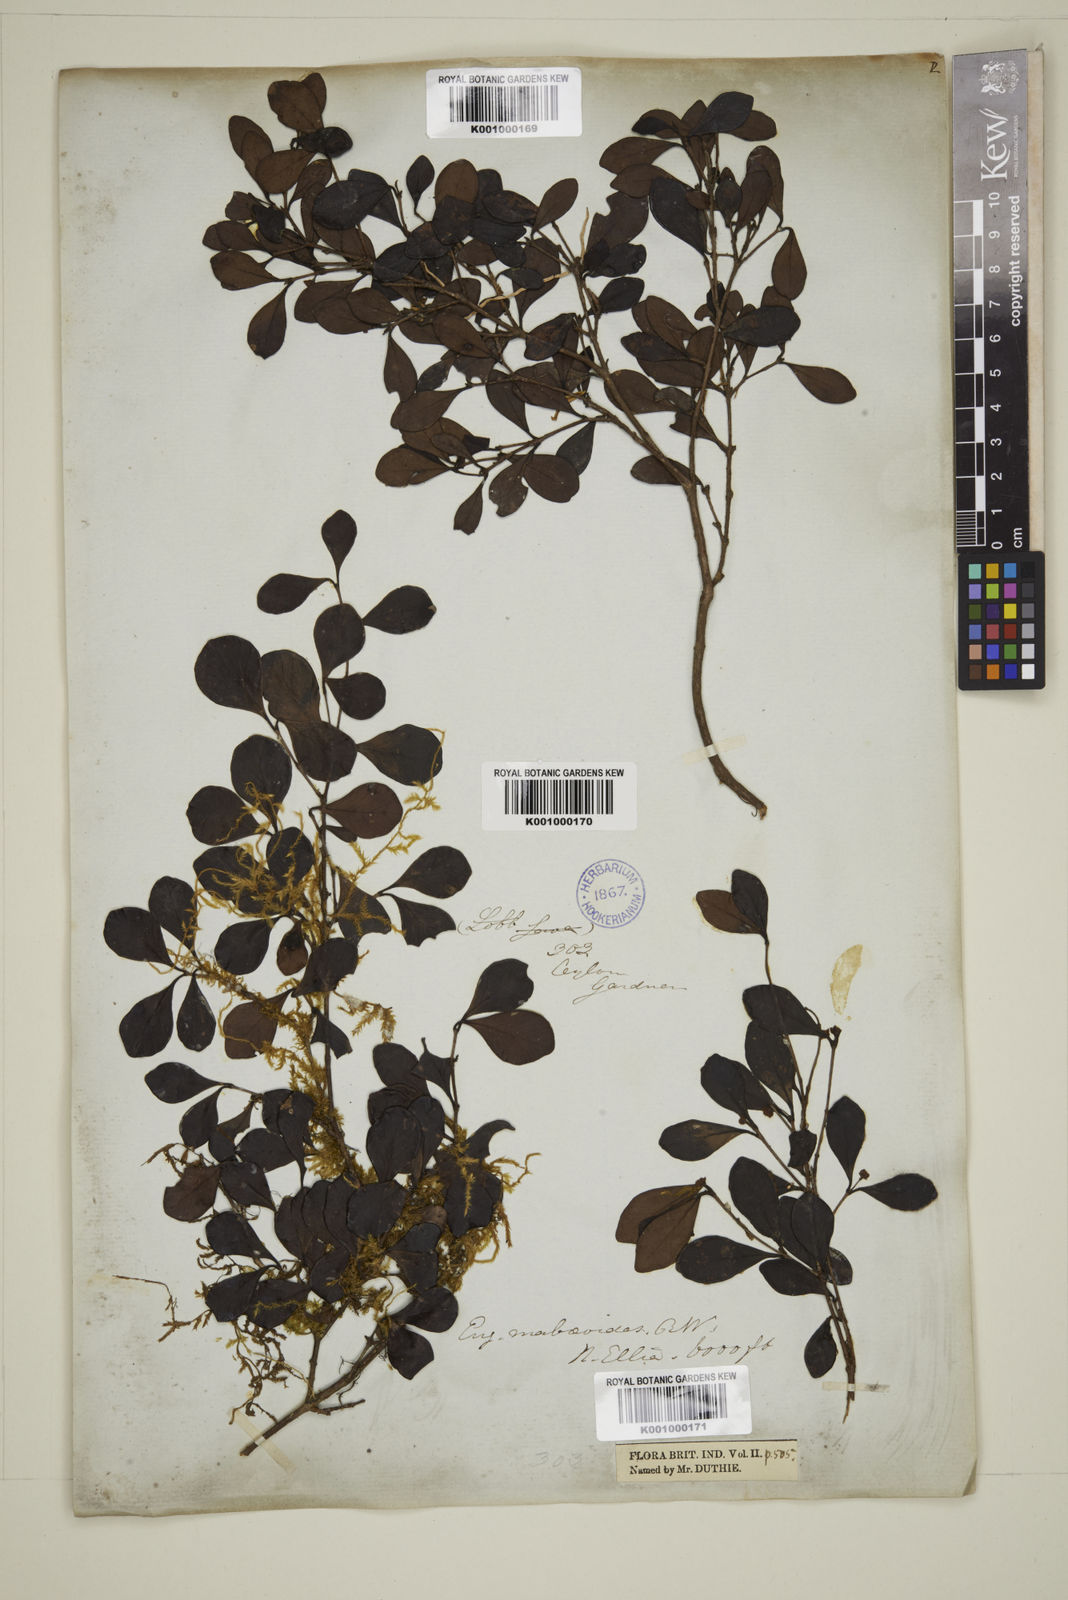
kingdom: Plantae
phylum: Tracheophyta
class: Magnoliopsida
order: Myrtales
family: Myrtaceae
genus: Eugenia
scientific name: Eugenia mabaeoides
